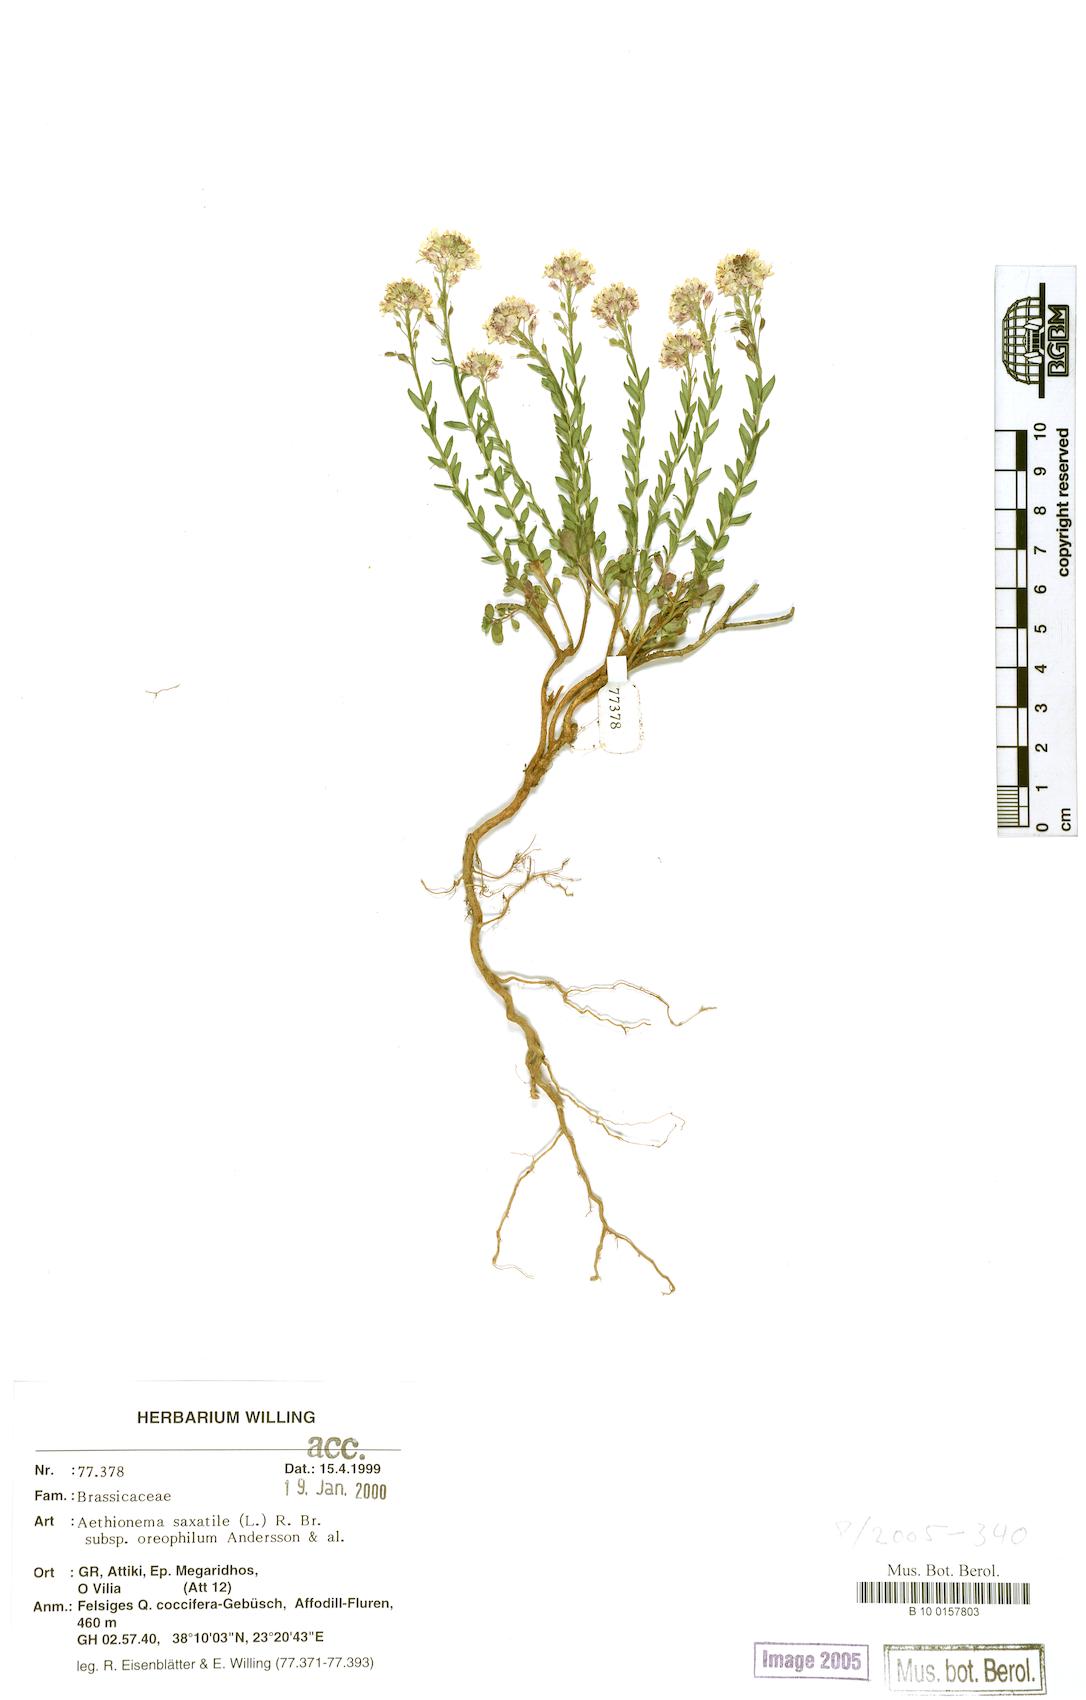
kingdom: Plantae
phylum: Tracheophyta
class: Magnoliopsida
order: Brassicales
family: Brassicaceae
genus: Aethionema
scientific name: Aethionema saxatile
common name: Burnt candytuft
